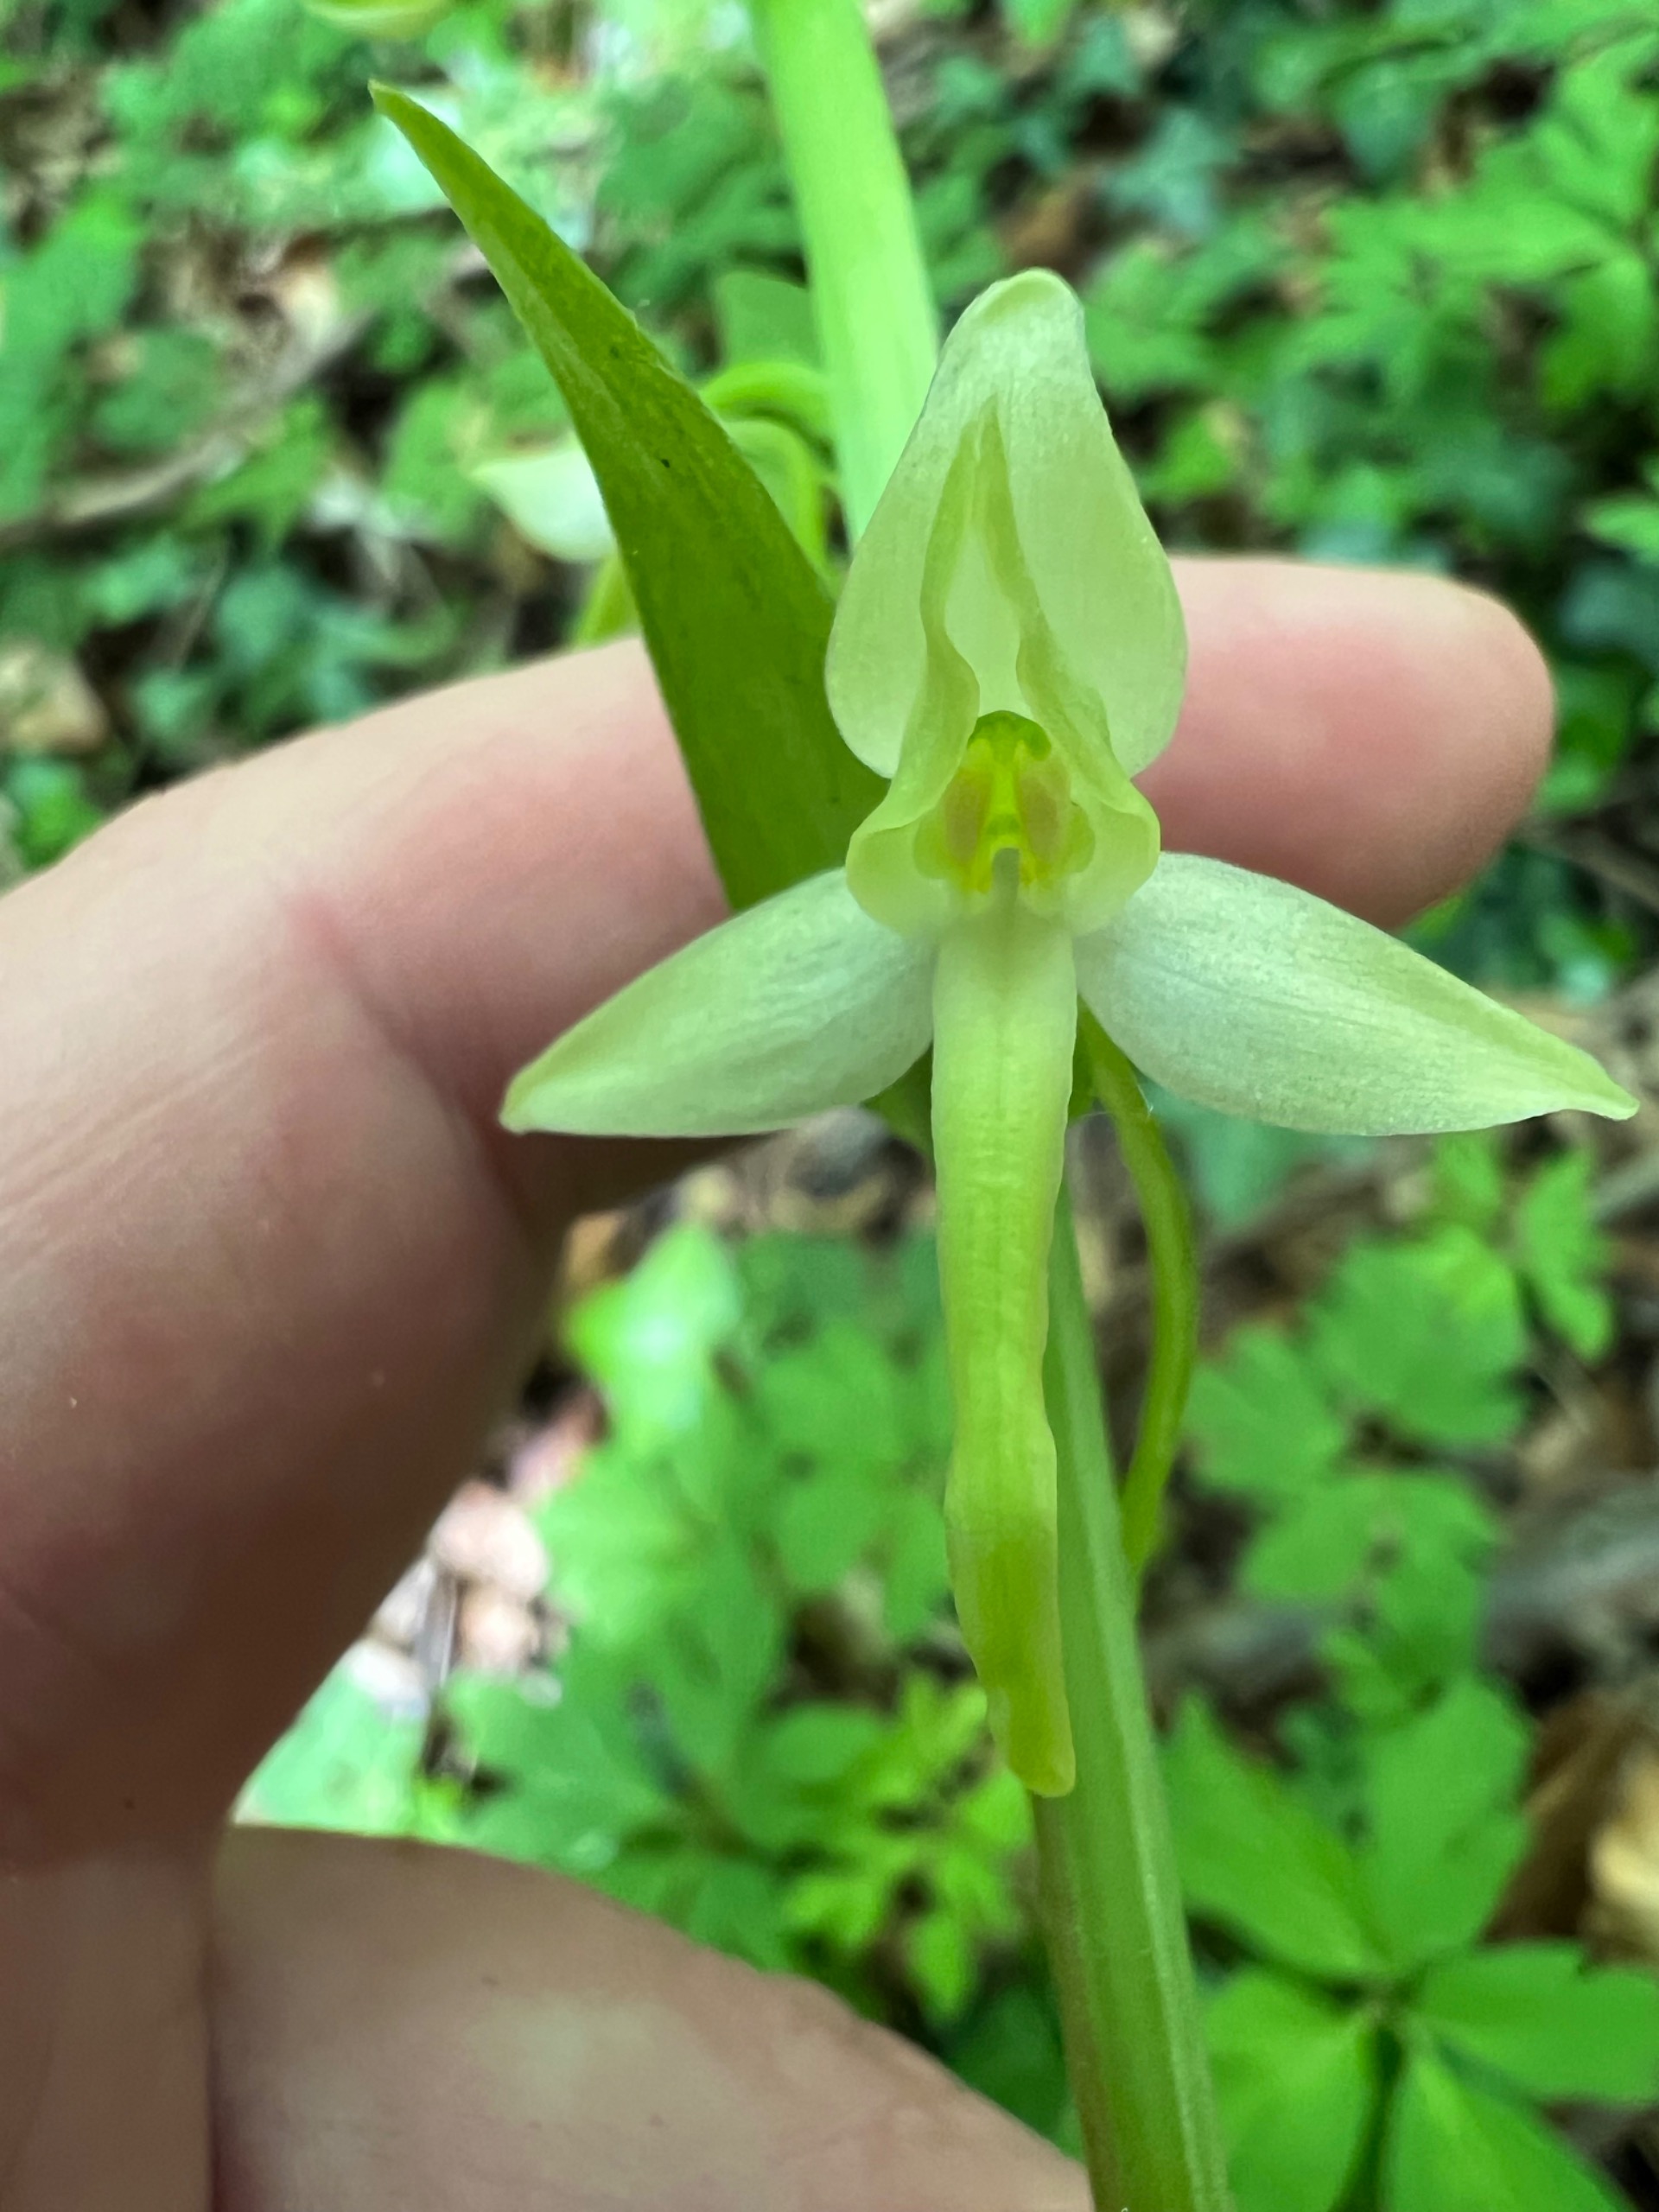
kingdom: Plantae
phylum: Tracheophyta
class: Liliopsida
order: Asparagales
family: Orchidaceae
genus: Platanthera
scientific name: Platanthera bifolia
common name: Langsporet gøgelilje
